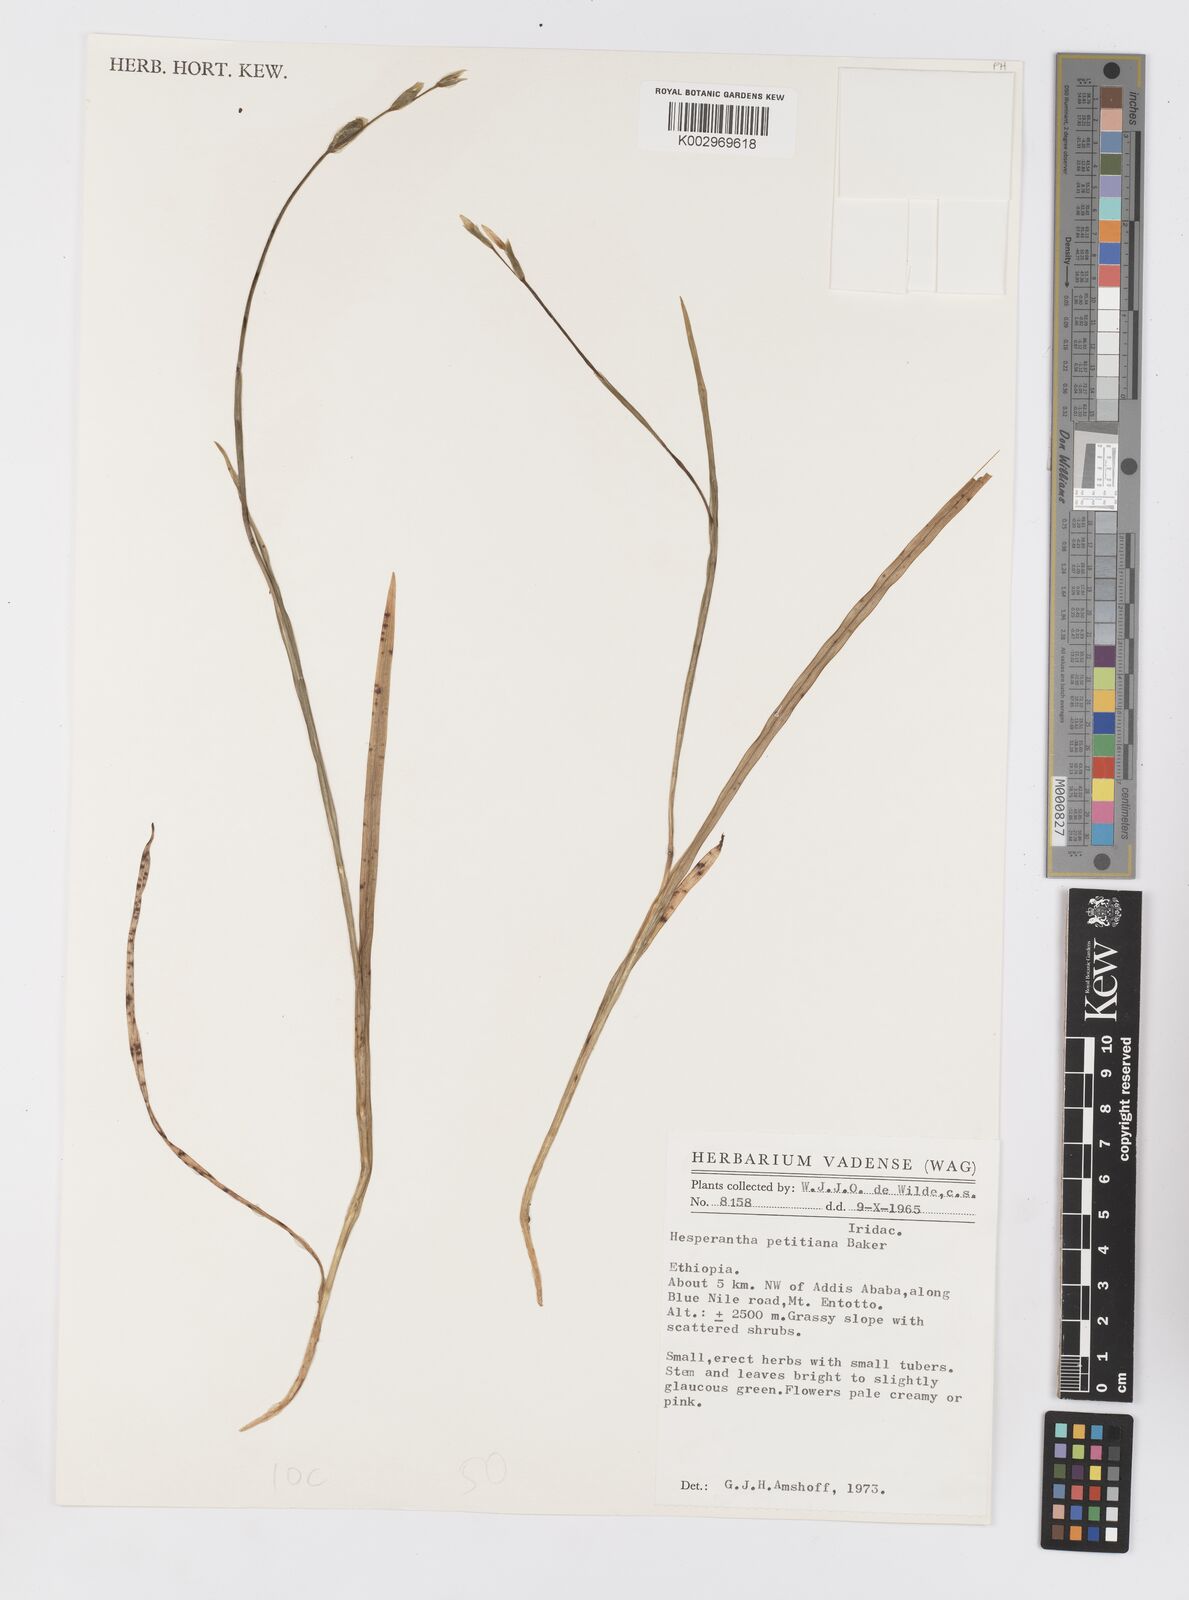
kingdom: Plantae
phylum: Tracheophyta
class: Liliopsida
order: Asparagales
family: Iridaceae
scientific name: Iridaceae
